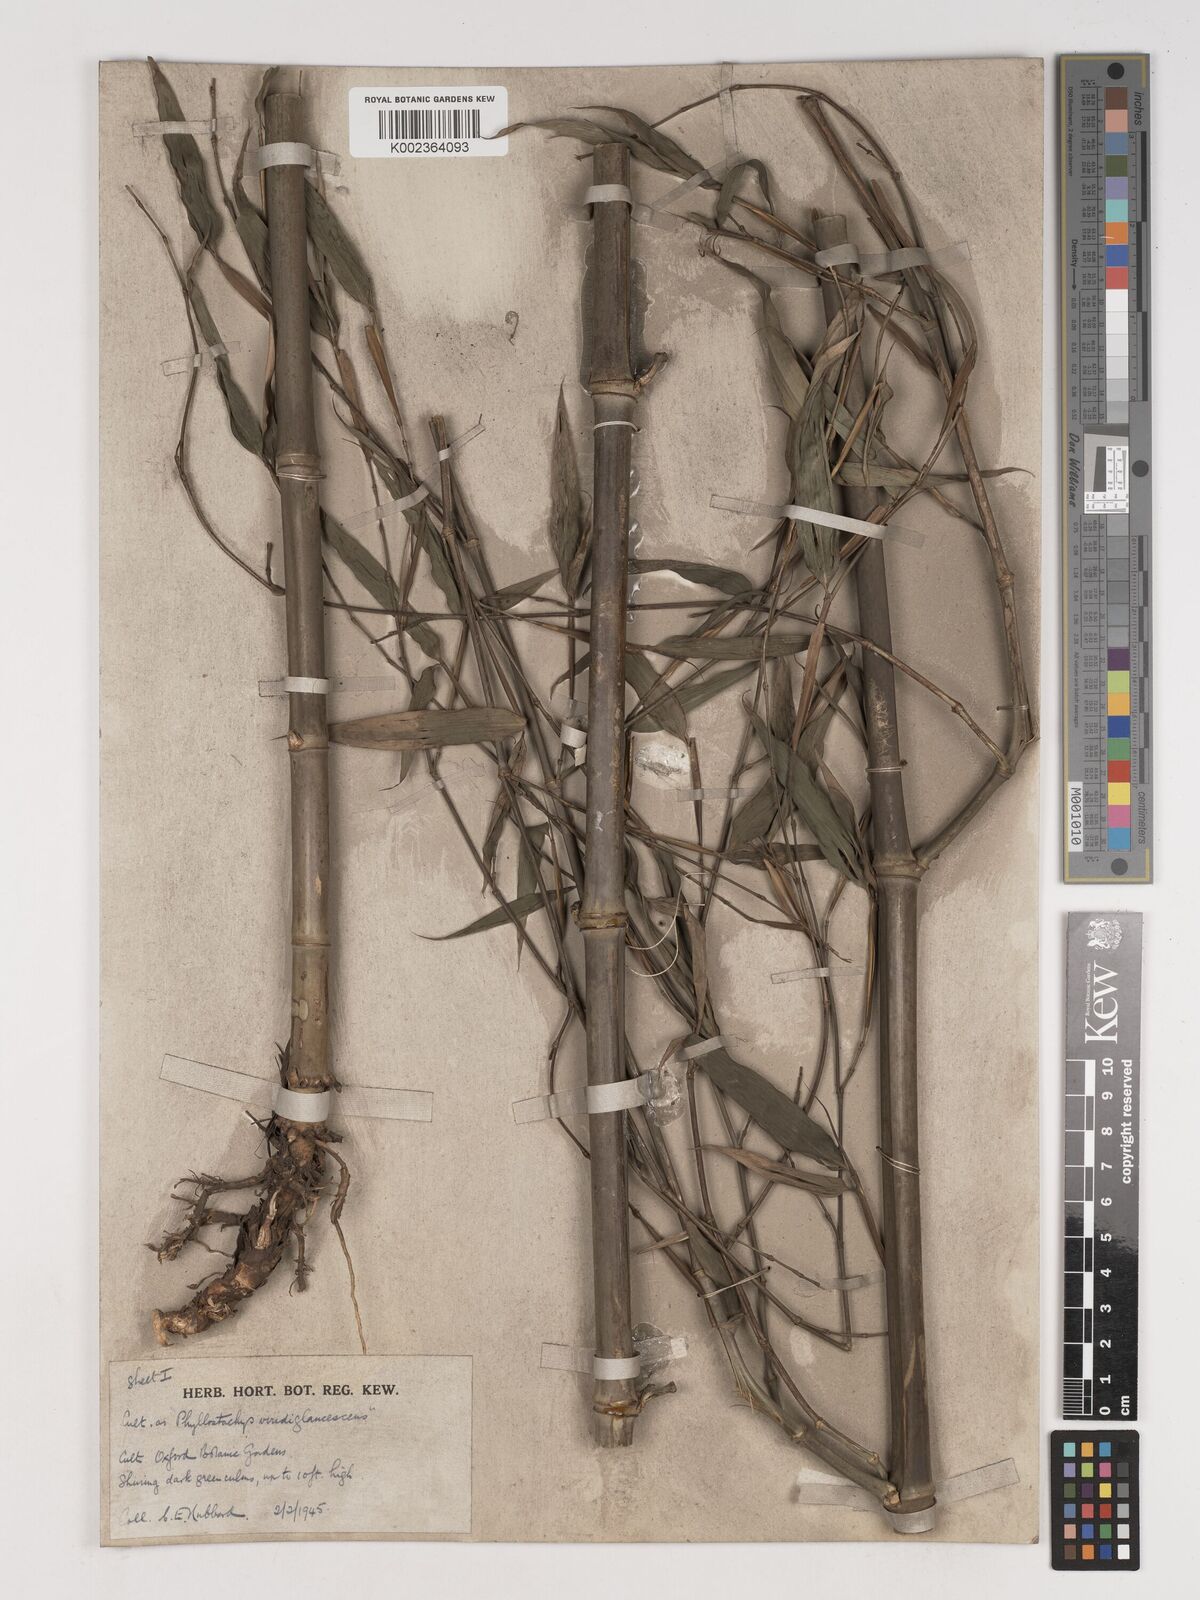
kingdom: Plantae
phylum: Tracheophyta
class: Liliopsida
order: Poales
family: Poaceae
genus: Phyllostachys
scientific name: Phyllostachys viridiglaucescens
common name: Greenwax golden bamboo
